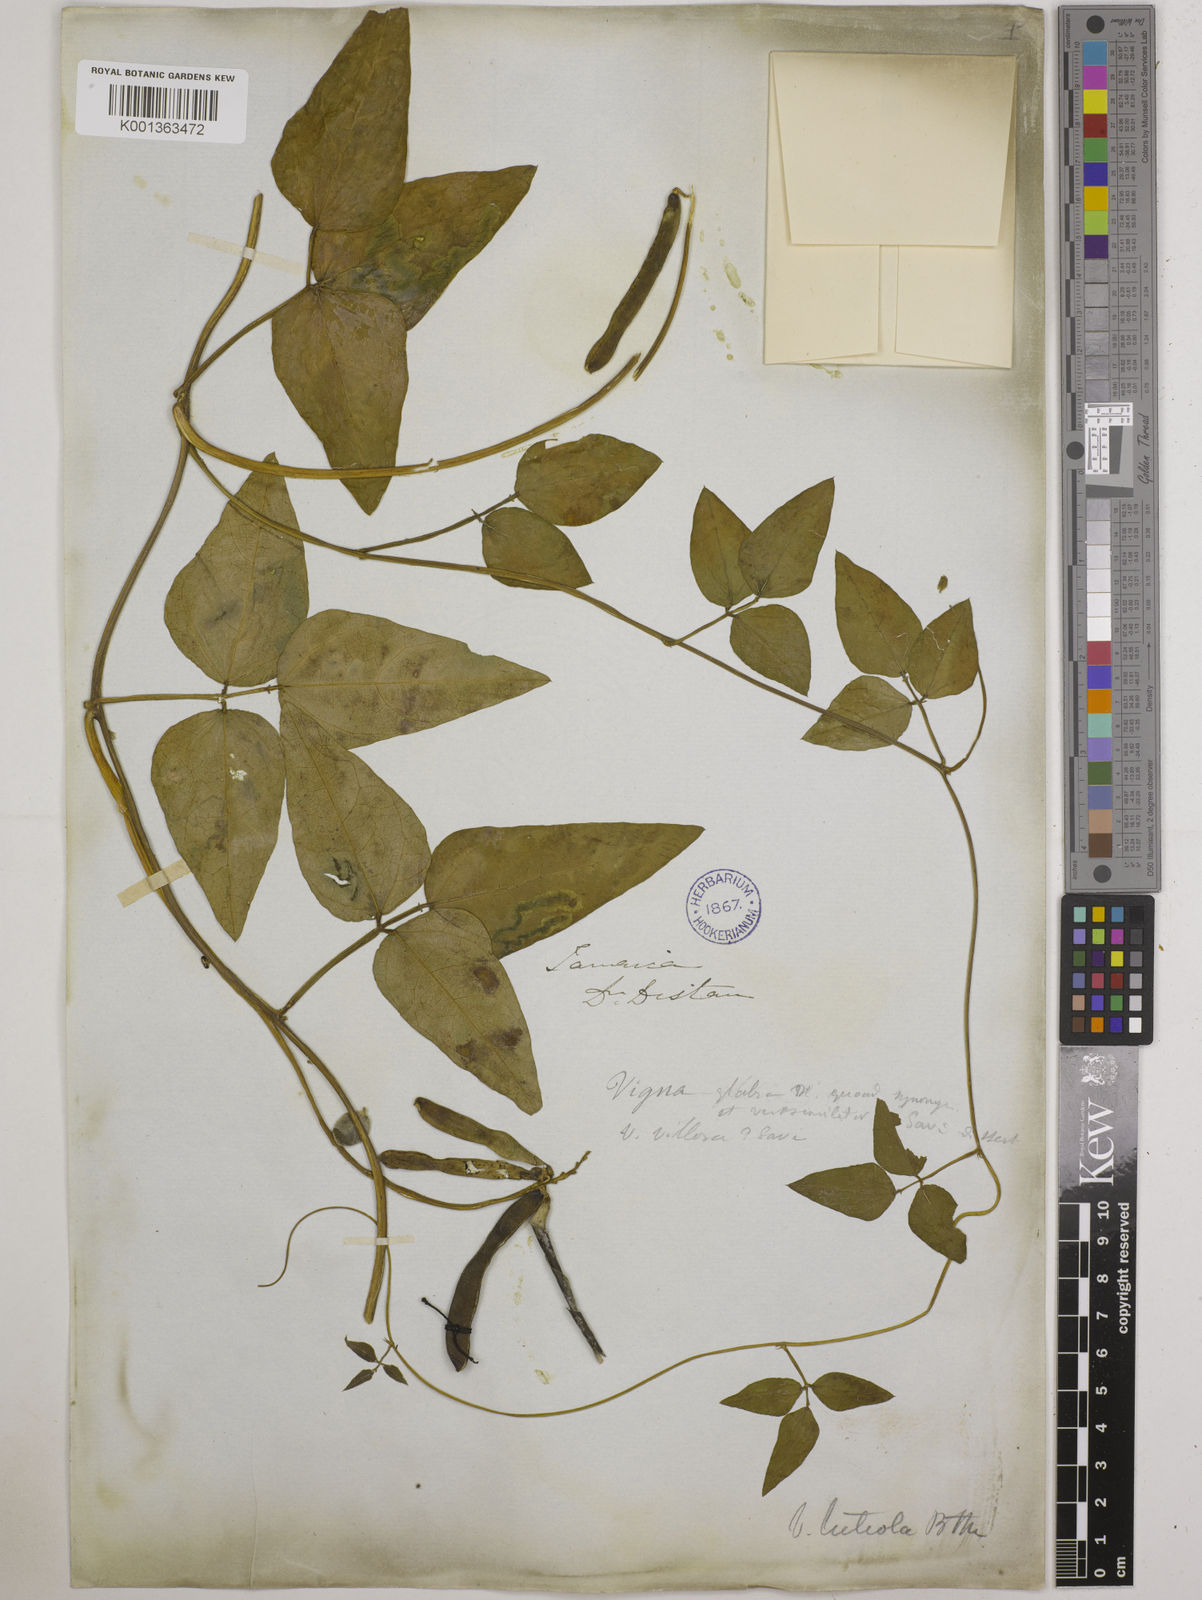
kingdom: Plantae
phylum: Tracheophyta
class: Magnoliopsida
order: Fabales
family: Fabaceae
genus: Vigna
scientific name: Vigna luteola
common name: Hairypod cowpea
